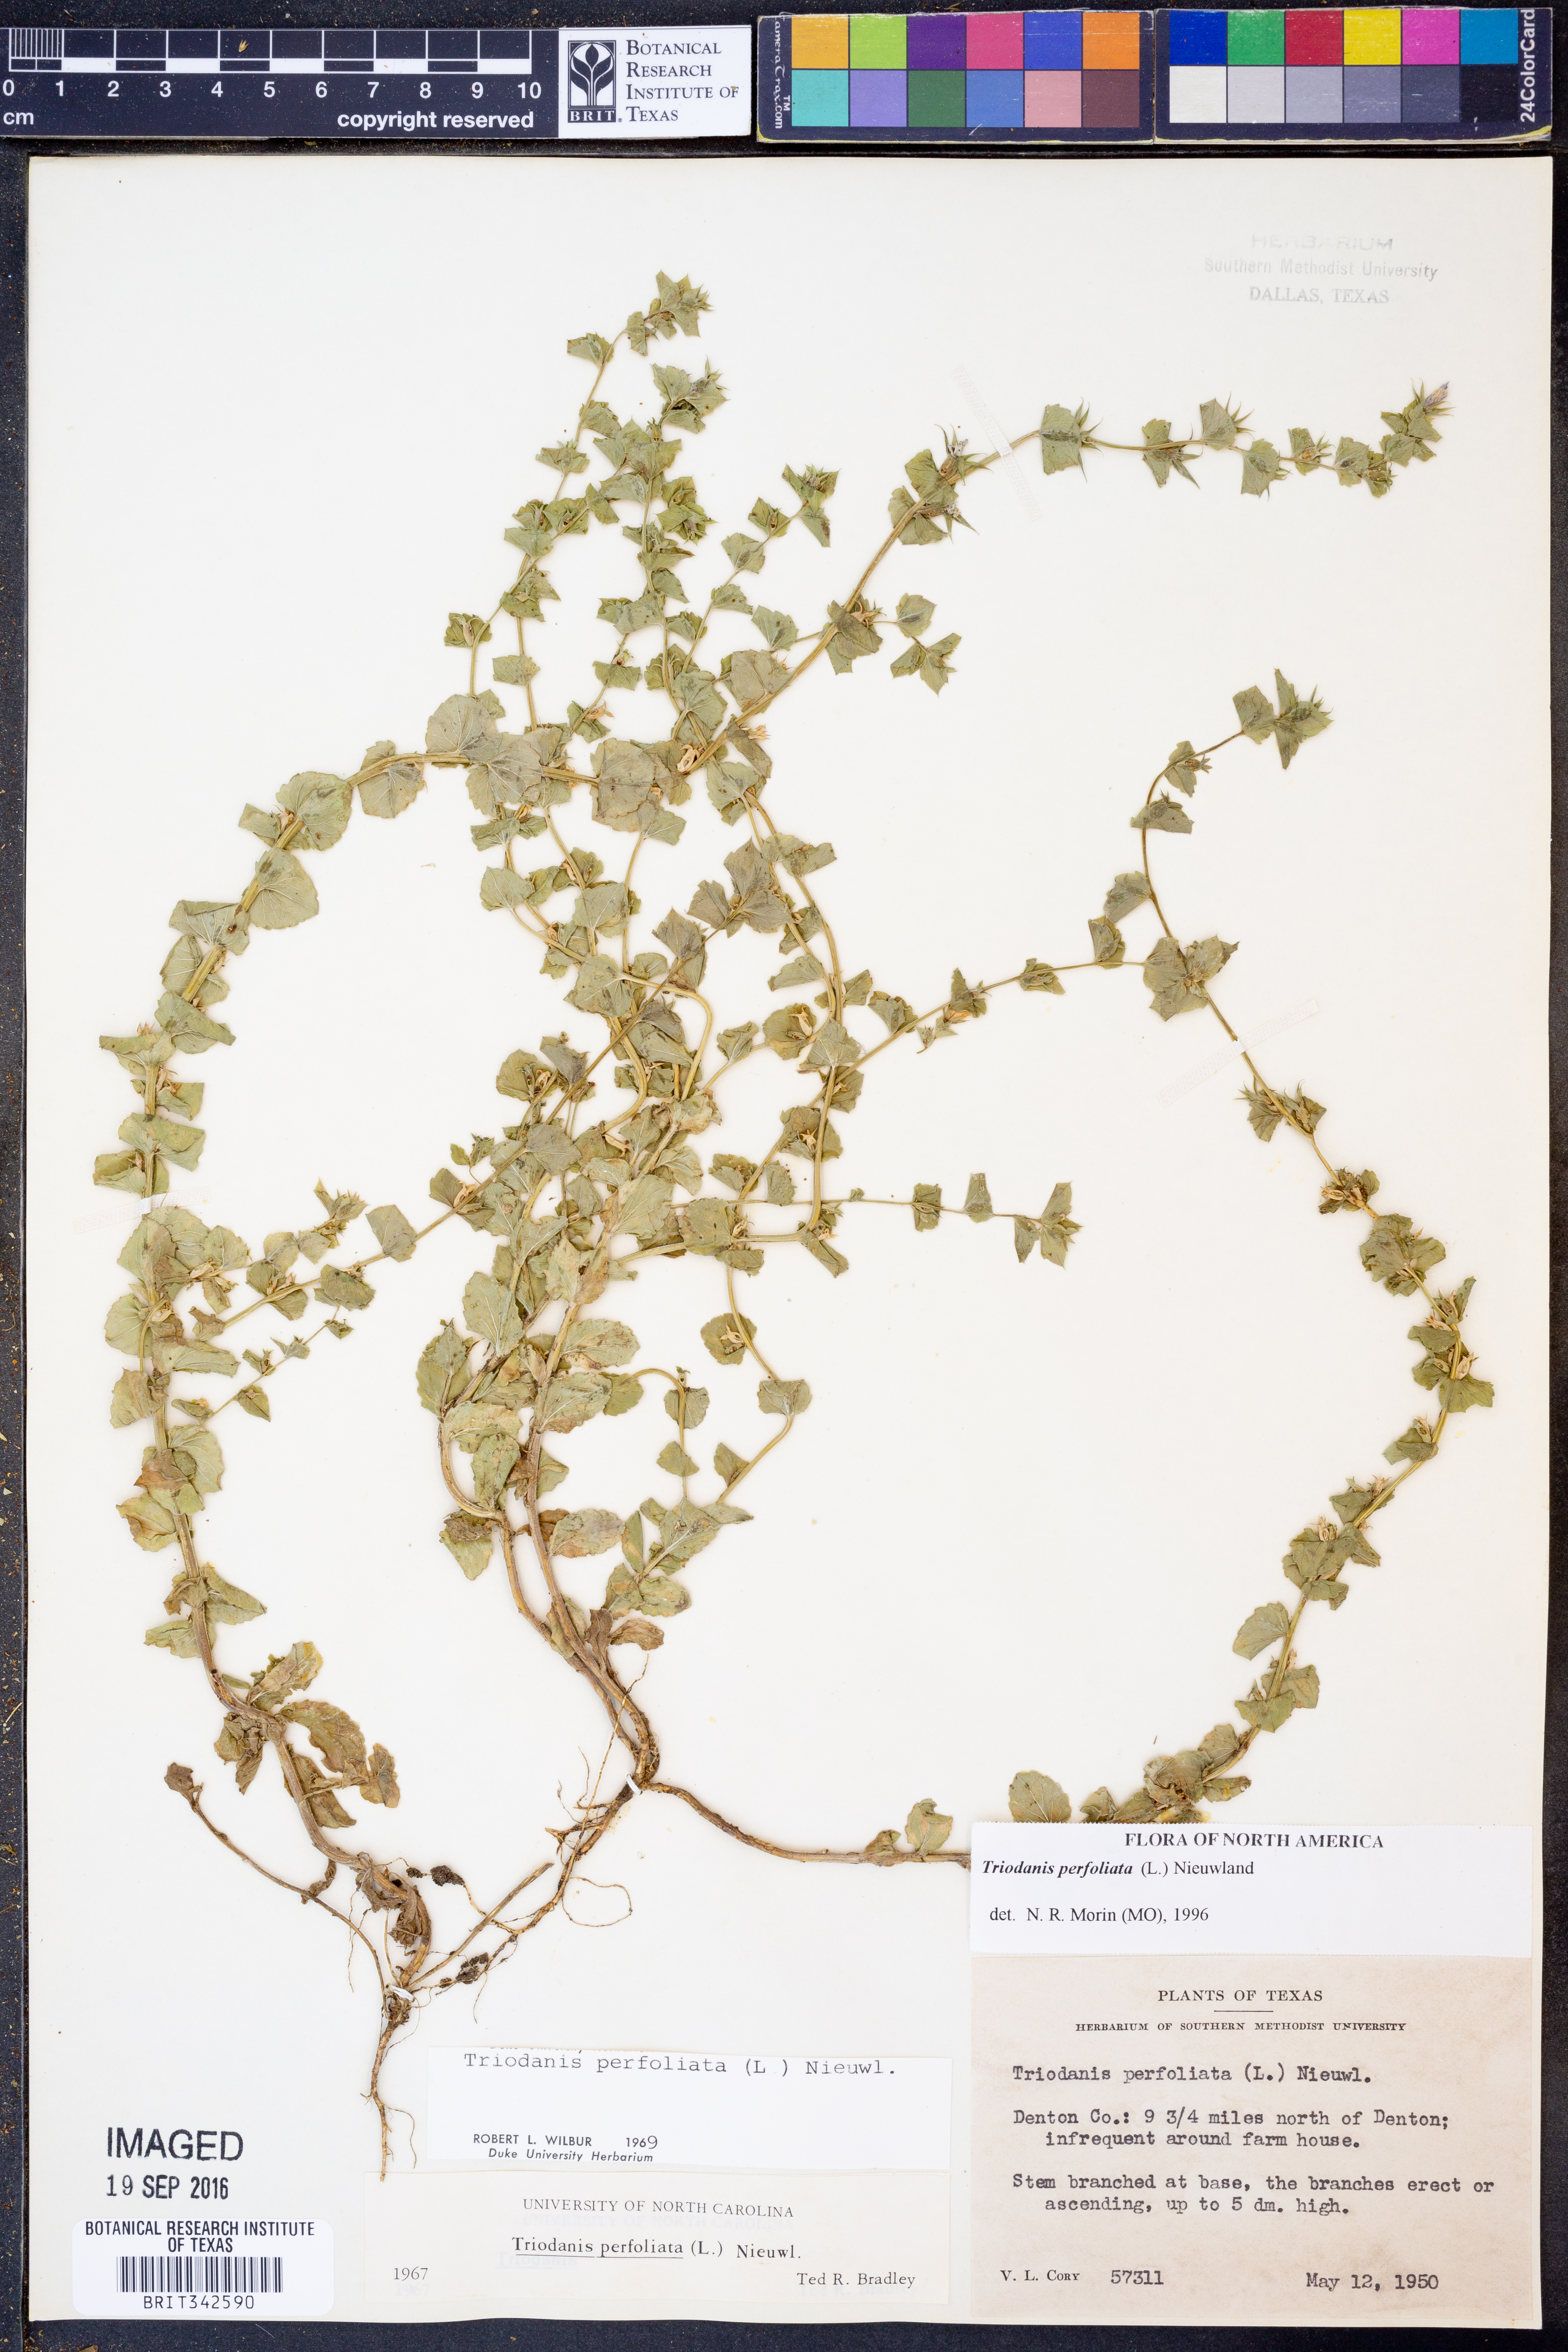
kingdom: Plantae
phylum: Tracheophyta
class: Magnoliopsida
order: Asterales
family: Campanulaceae
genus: Triodanis
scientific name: Triodanis perfoliata
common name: Clasping venus' looking-glass
